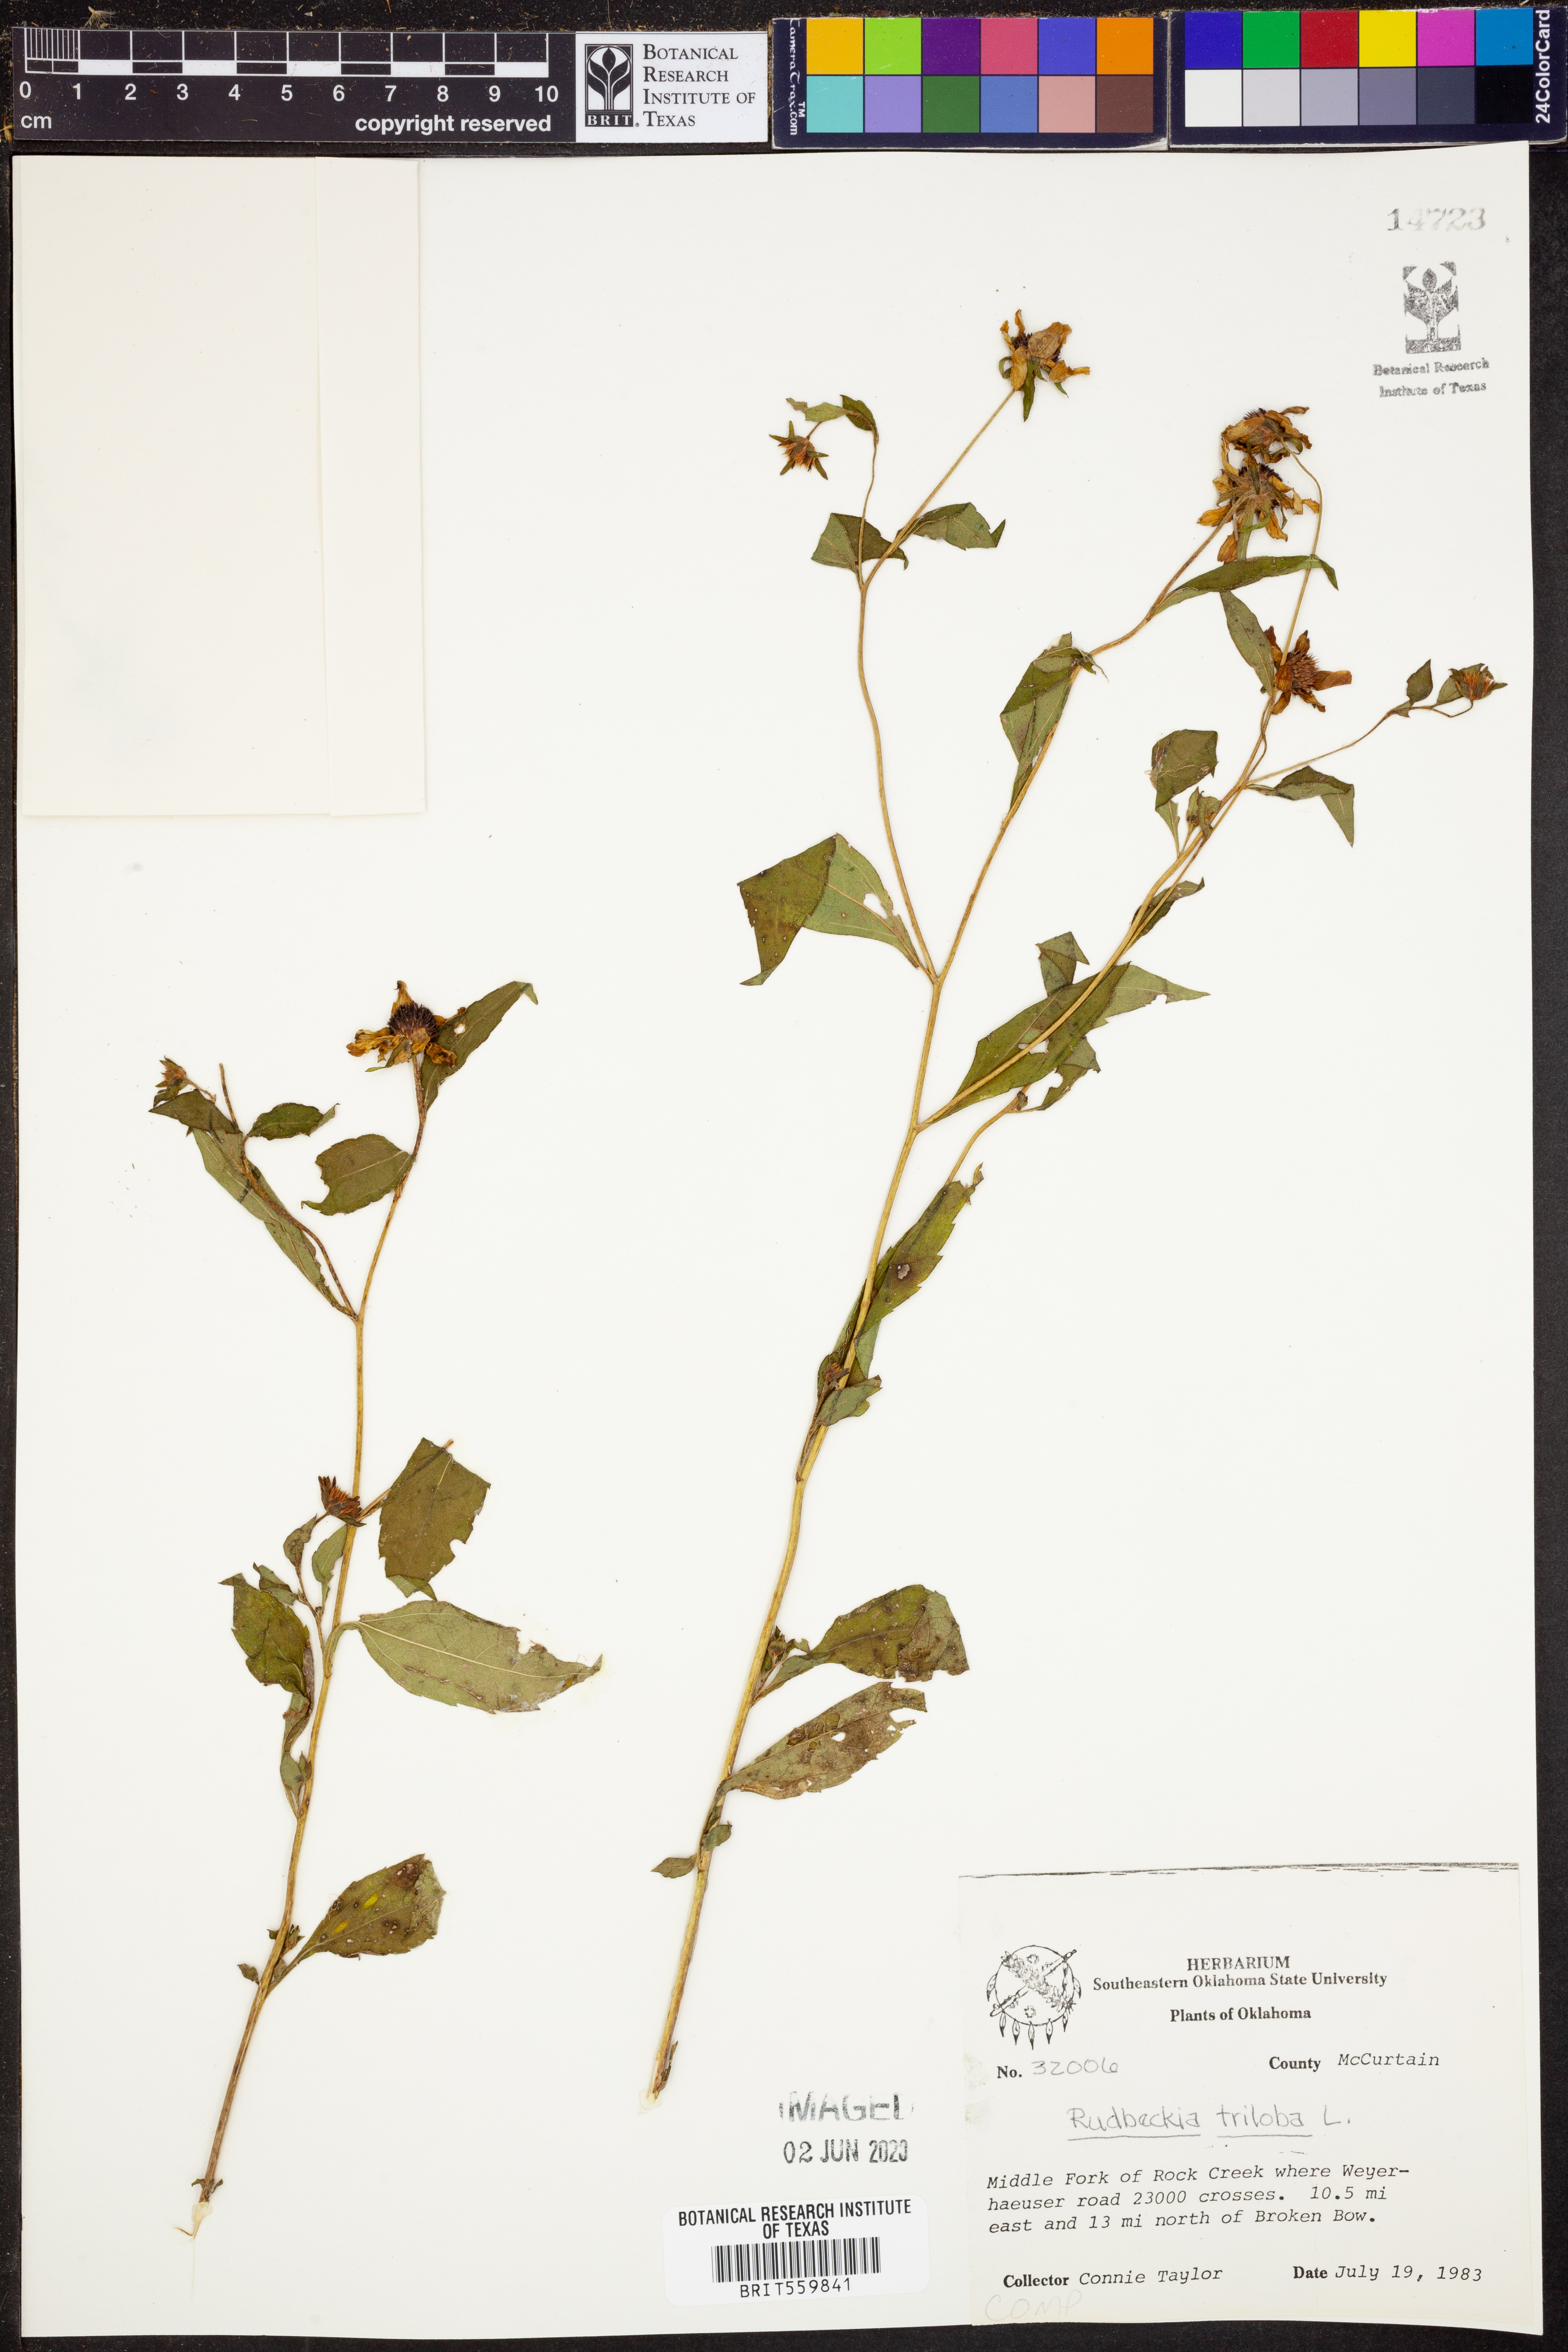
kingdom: Plantae
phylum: Tracheophyta
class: Magnoliopsida
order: Asterales
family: Asteraceae
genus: Rudbeckia
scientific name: Rudbeckia triloba
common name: Thin-leaved coneflower
